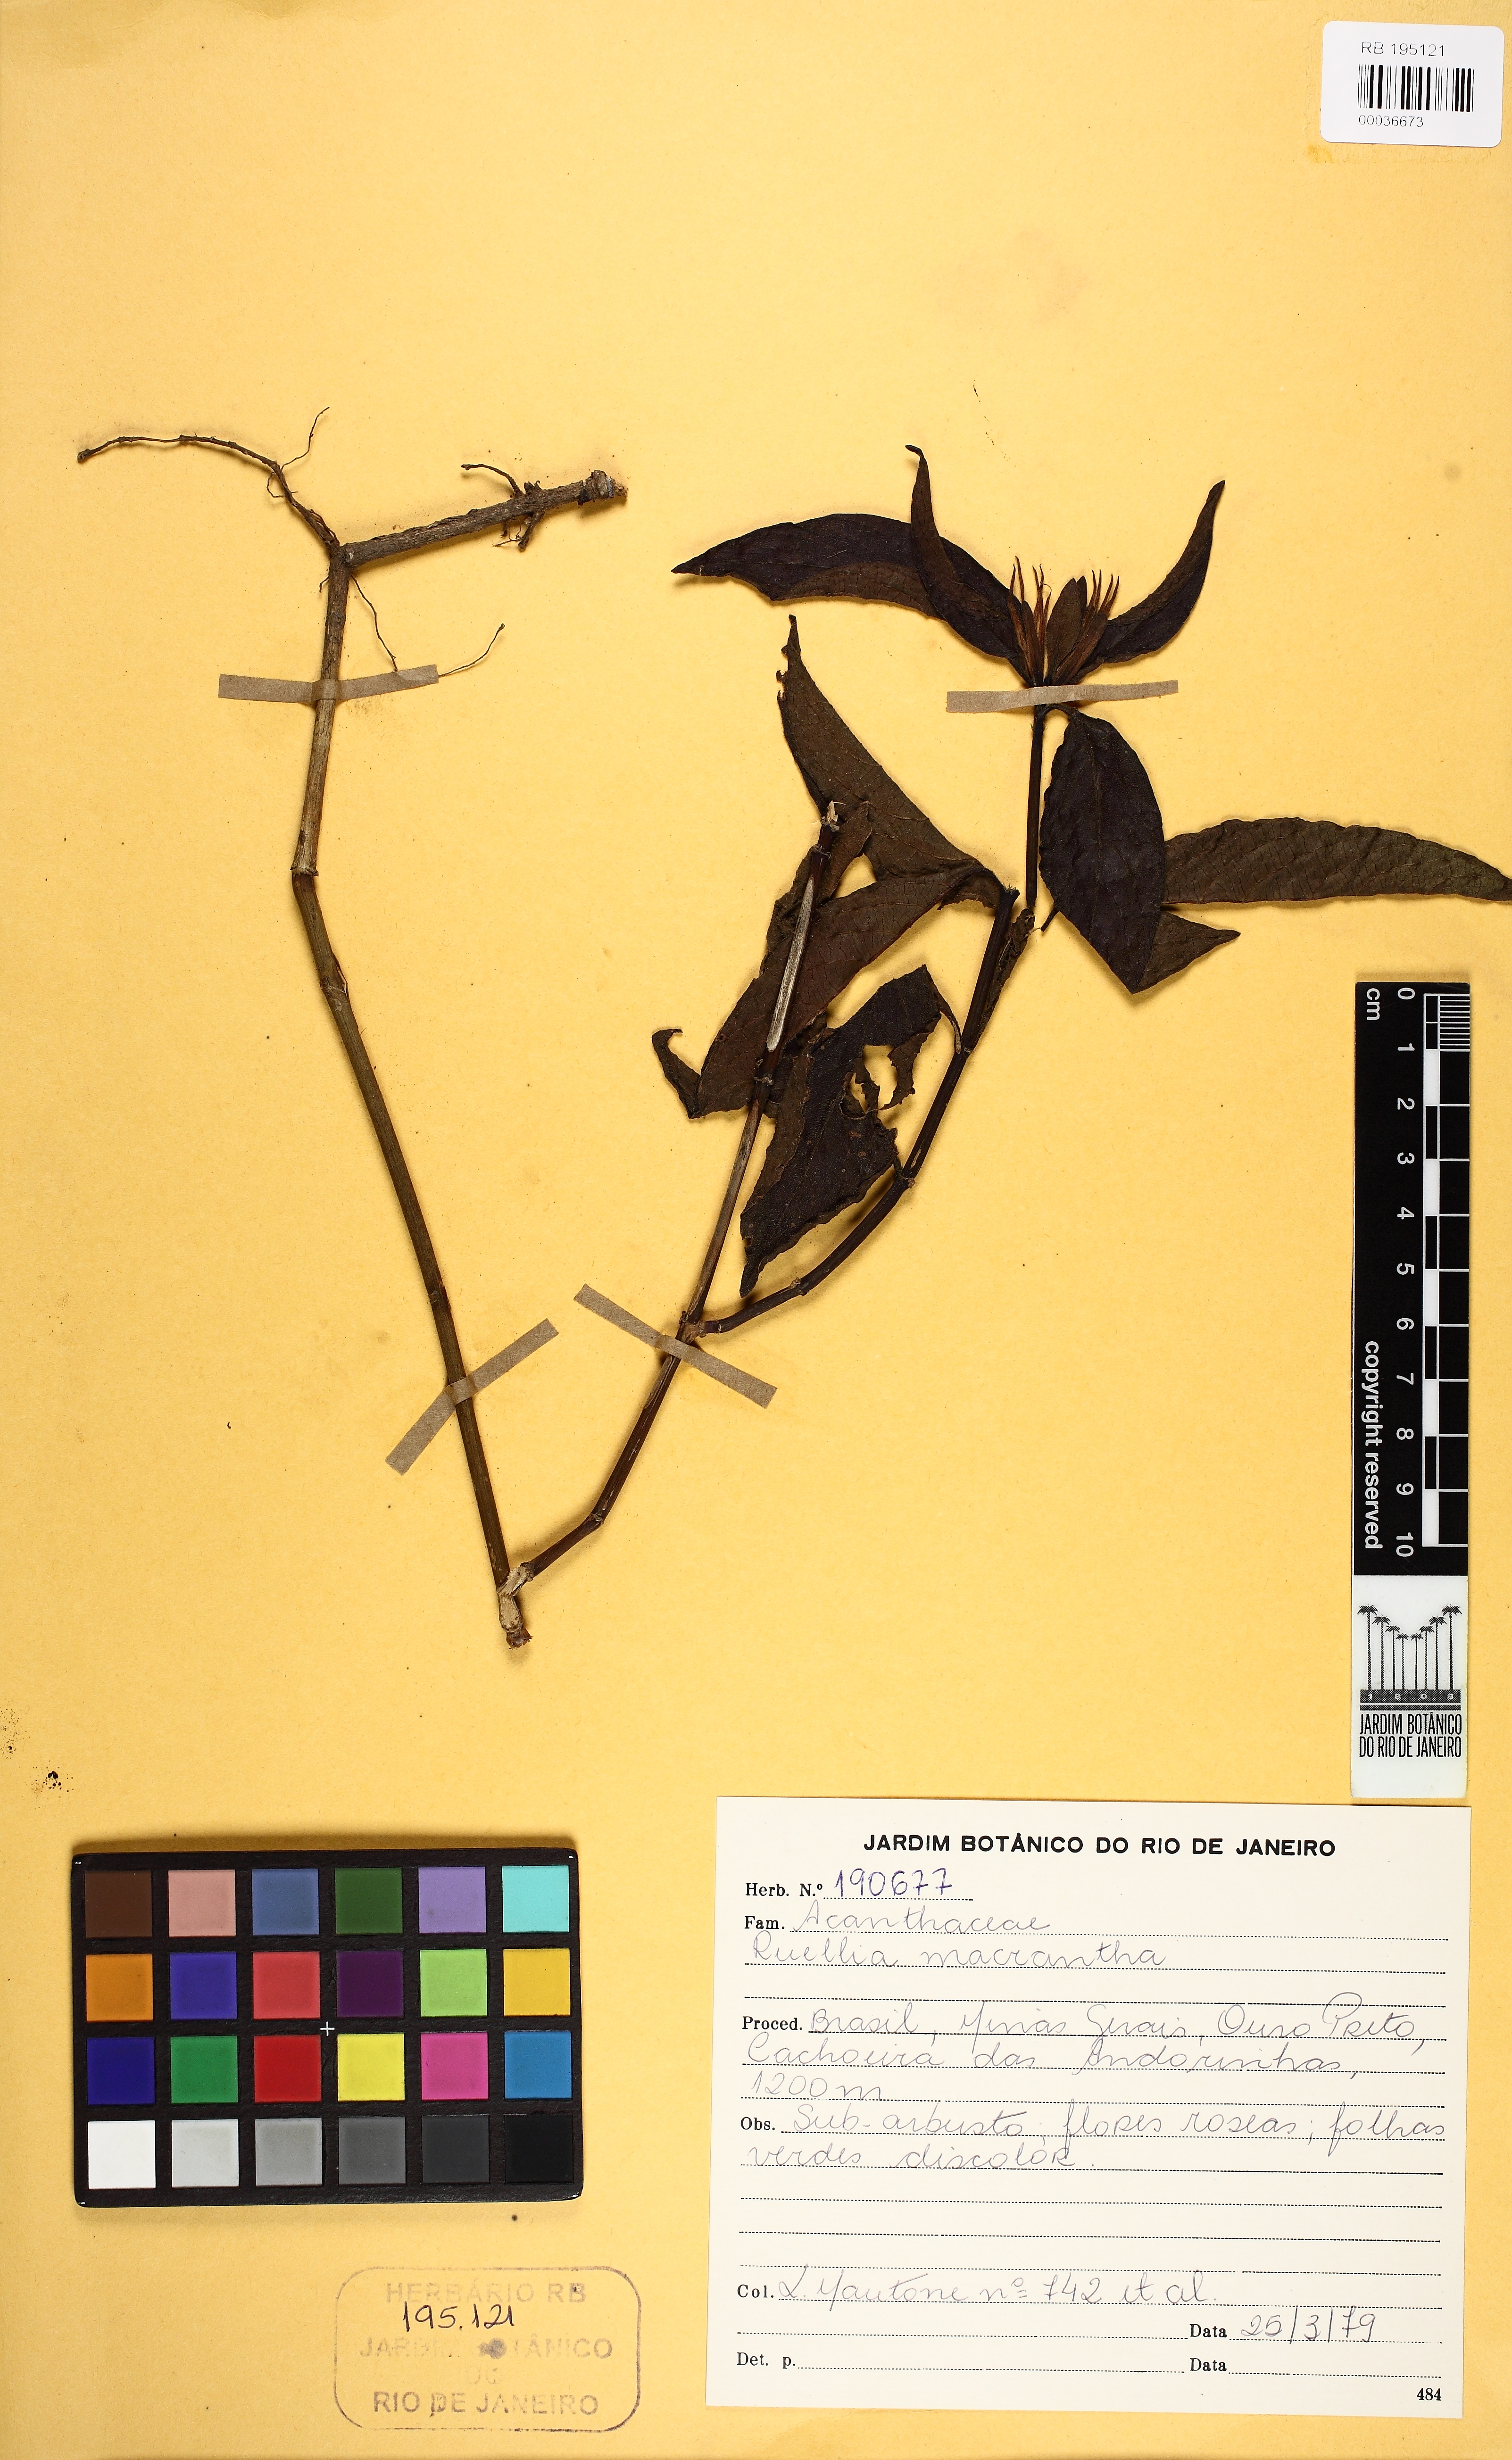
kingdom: Plantae
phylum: Tracheophyta
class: Magnoliopsida
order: Lamiales
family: Acanthaceae
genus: Ruellia
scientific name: Ruellia macrantha
